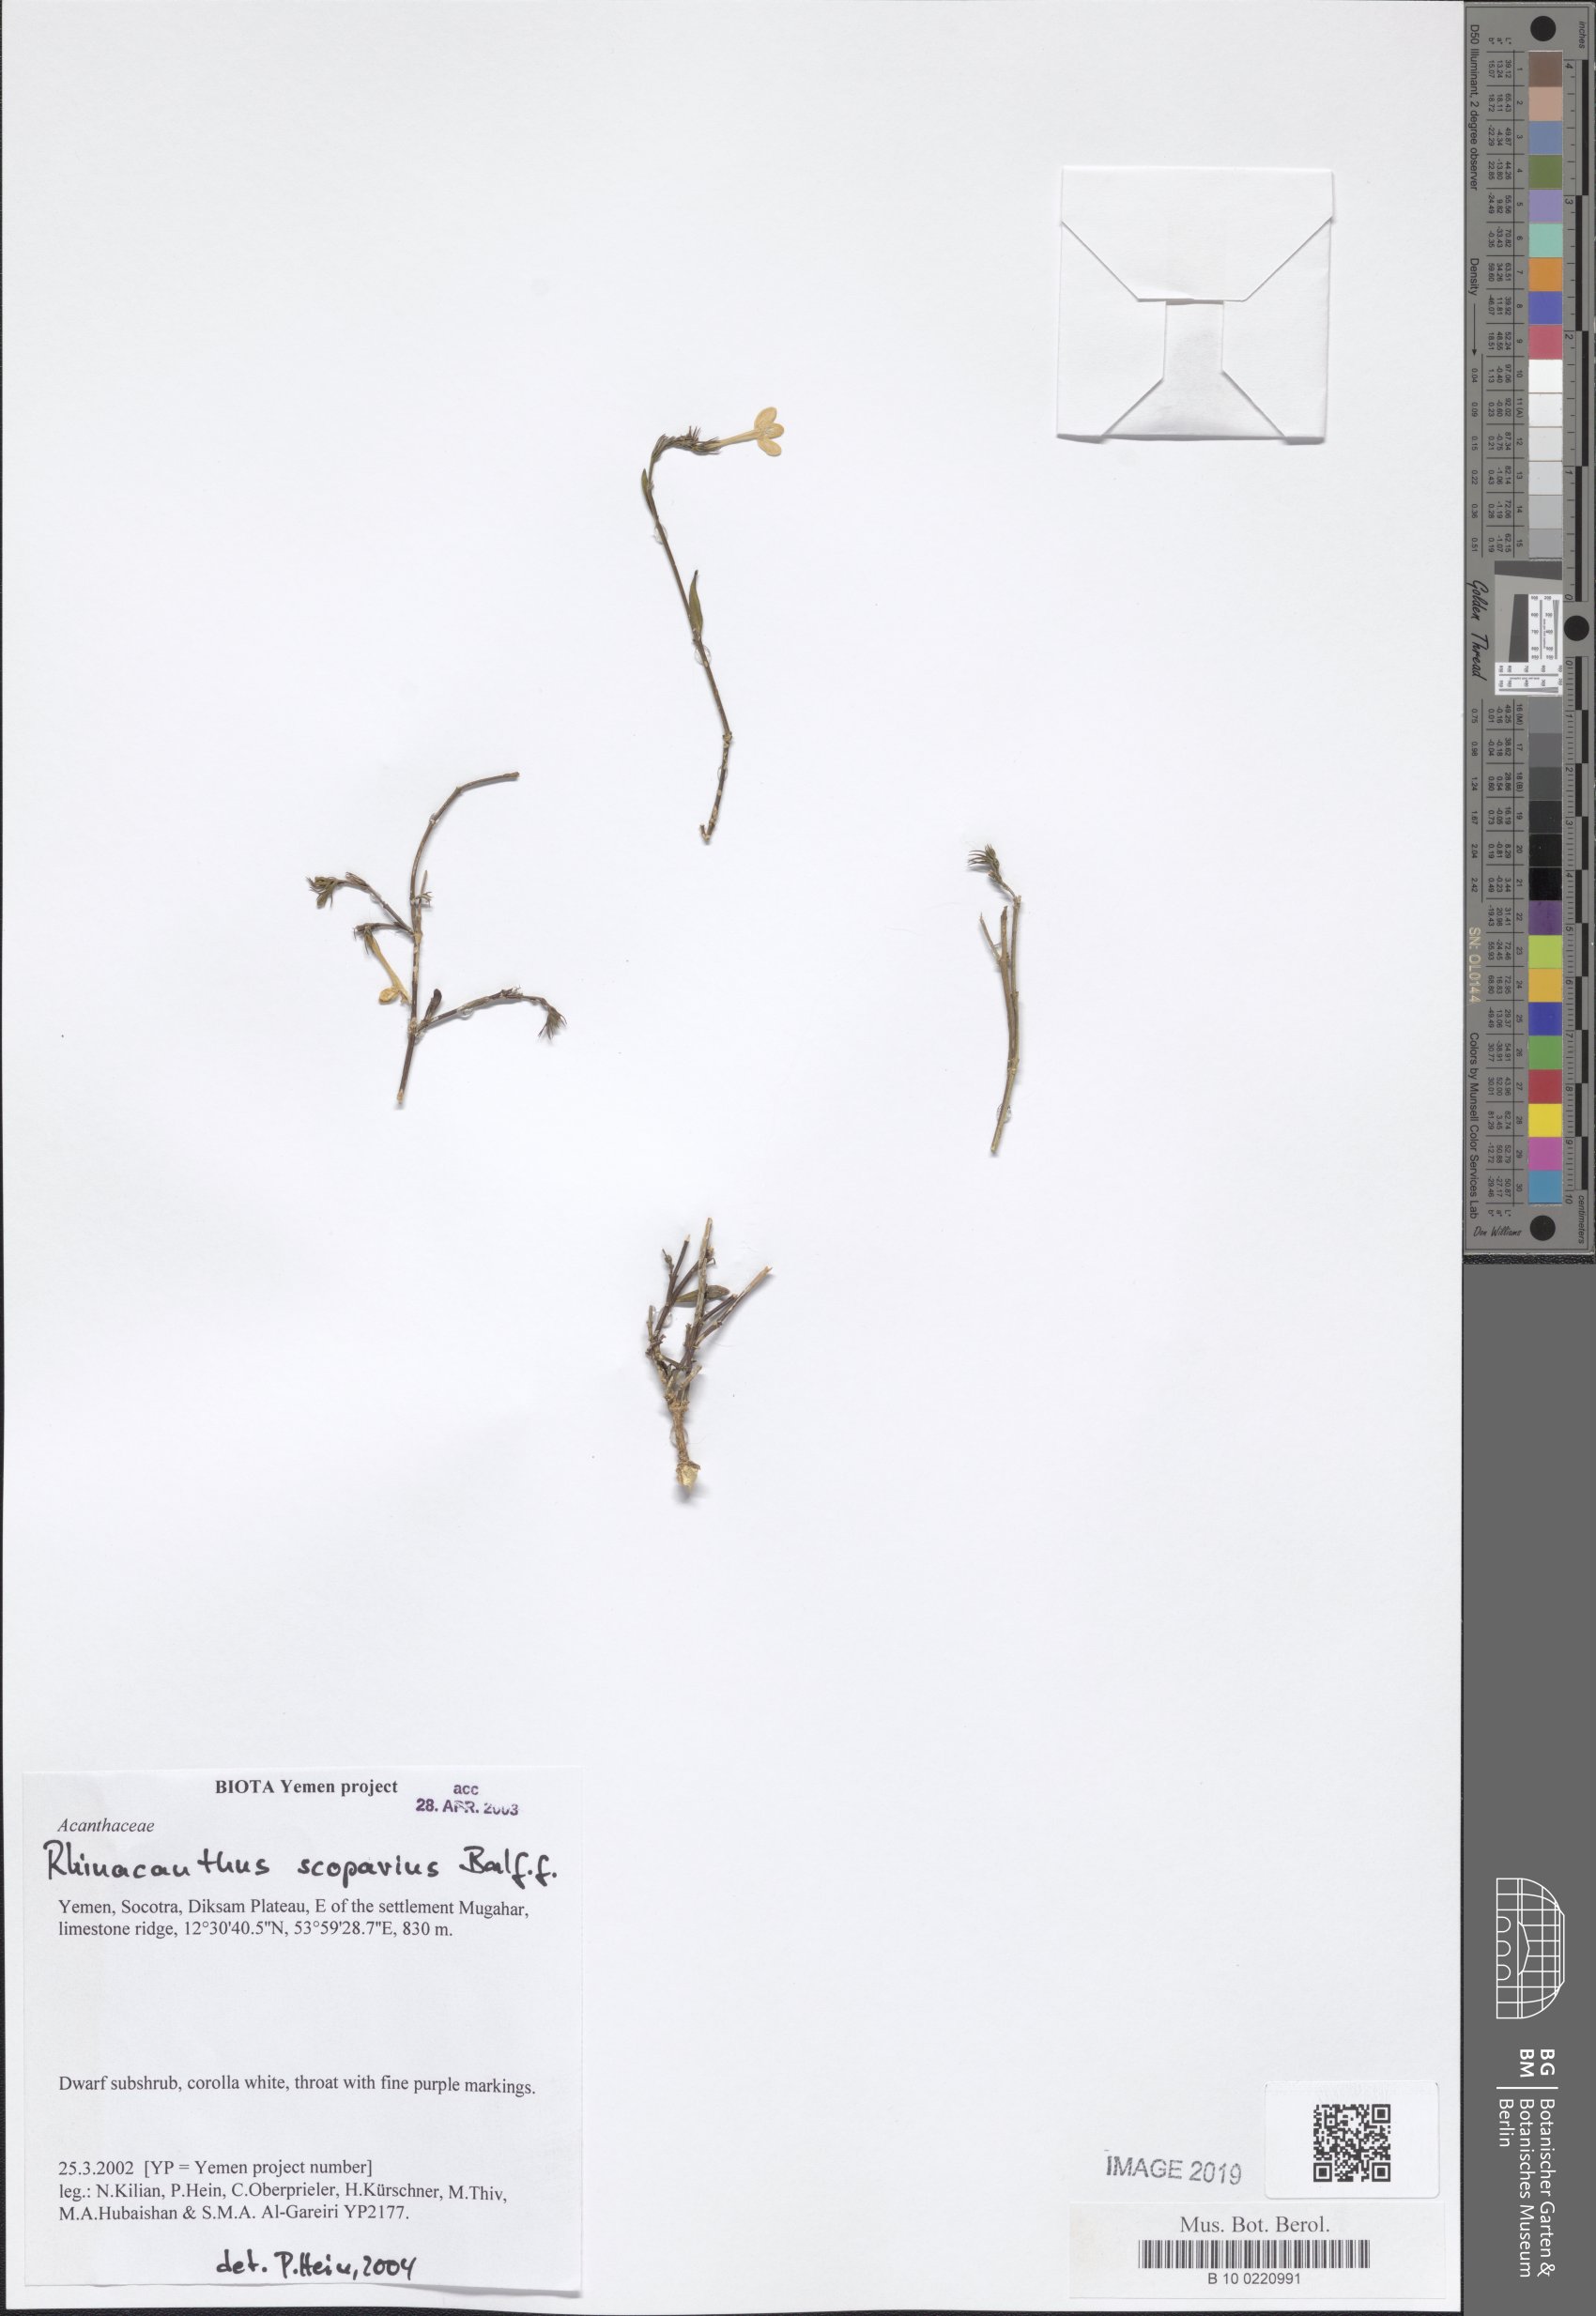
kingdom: Plantae
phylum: Tracheophyta
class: Magnoliopsida
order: Lamiales
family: Acanthaceae
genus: Rhinacanthus
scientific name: Rhinacanthus scoparius
